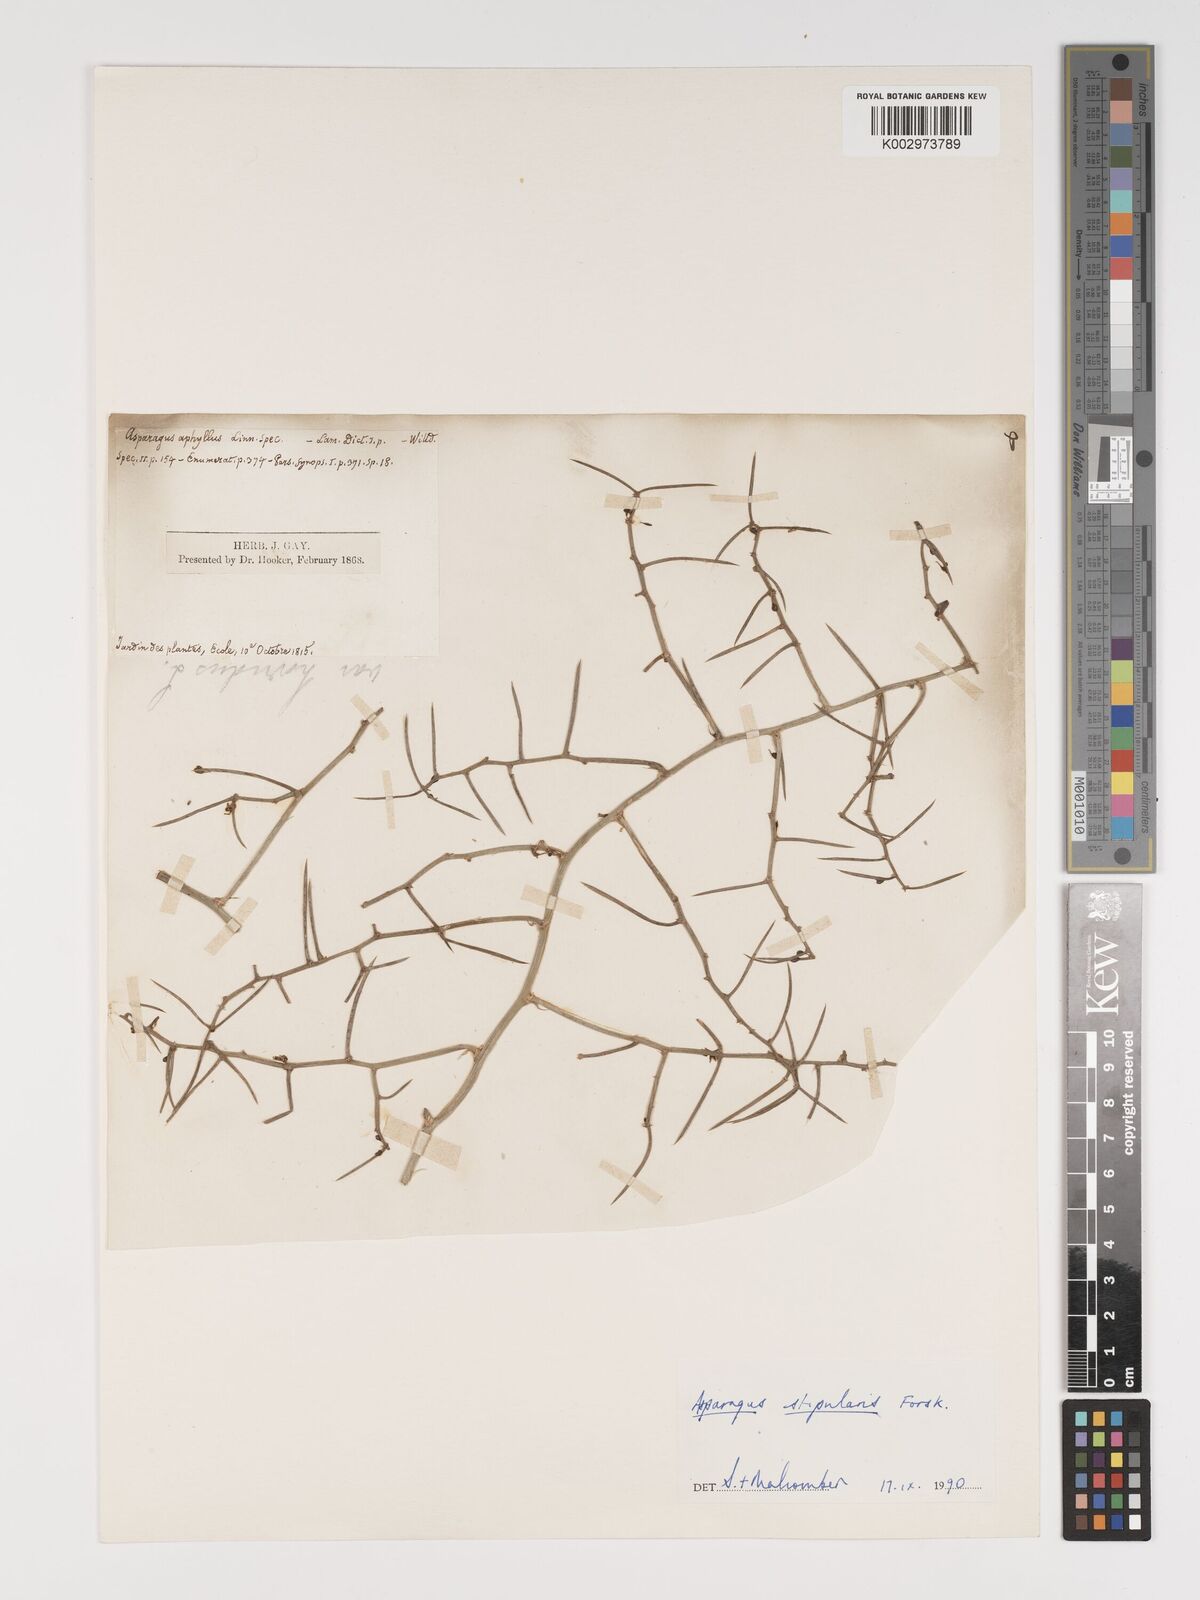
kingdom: Plantae
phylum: Tracheophyta
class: Liliopsida
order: Asparagales
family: Asparagaceae
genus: Asparagus
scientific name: Asparagus horridus
